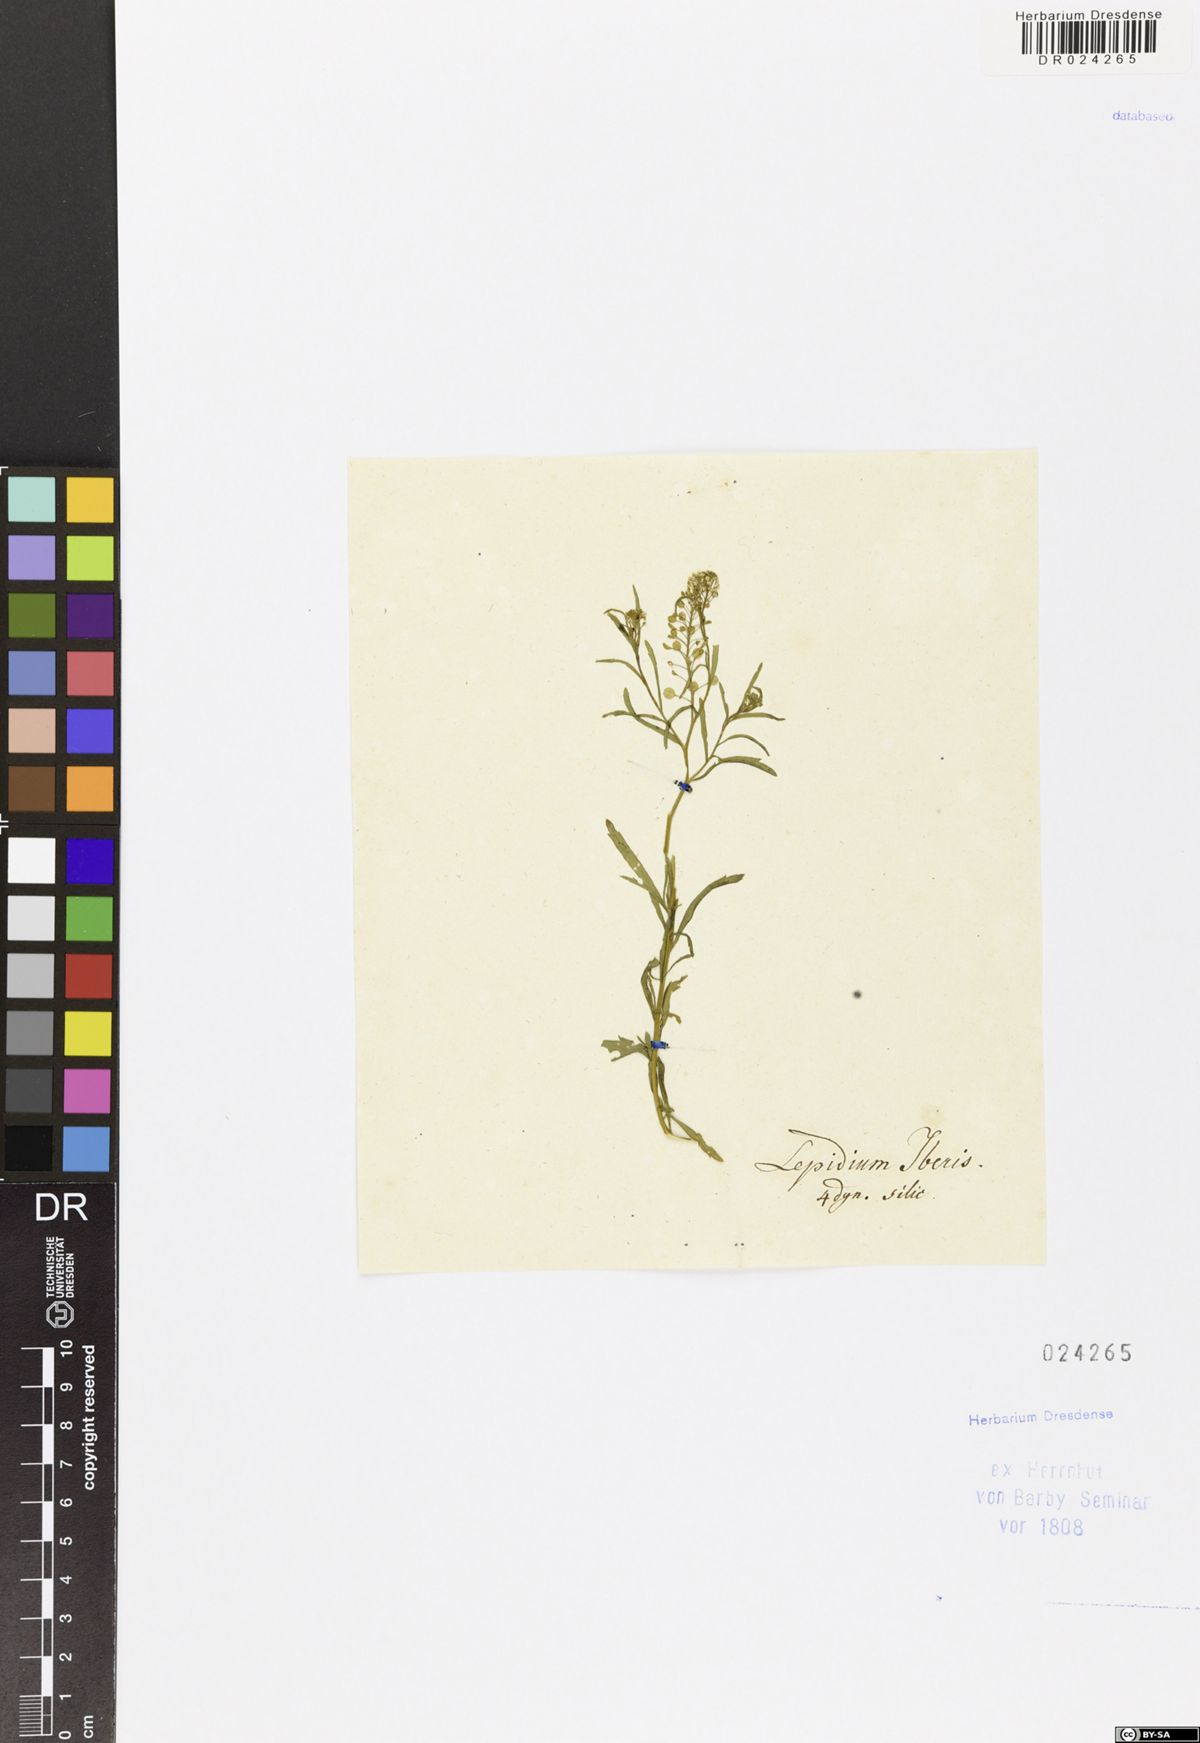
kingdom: Plantae
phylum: Tracheophyta
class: Magnoliopsida
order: Brassicales
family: Brassicaceae
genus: Lepidium
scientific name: Lepidium virginicum
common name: Least pepperwort
